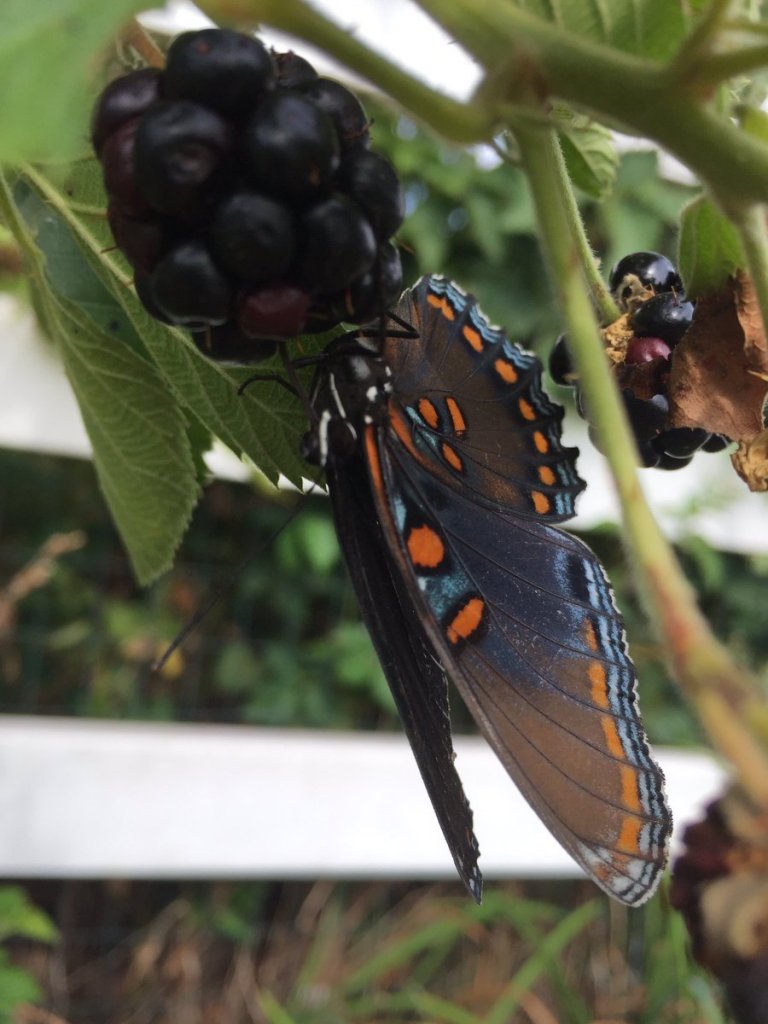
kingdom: Animalia
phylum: Arthropoda
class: Insecta
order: Lepidoptera
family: Nymphalidae
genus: Limenitis
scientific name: Limenitis astyanax
